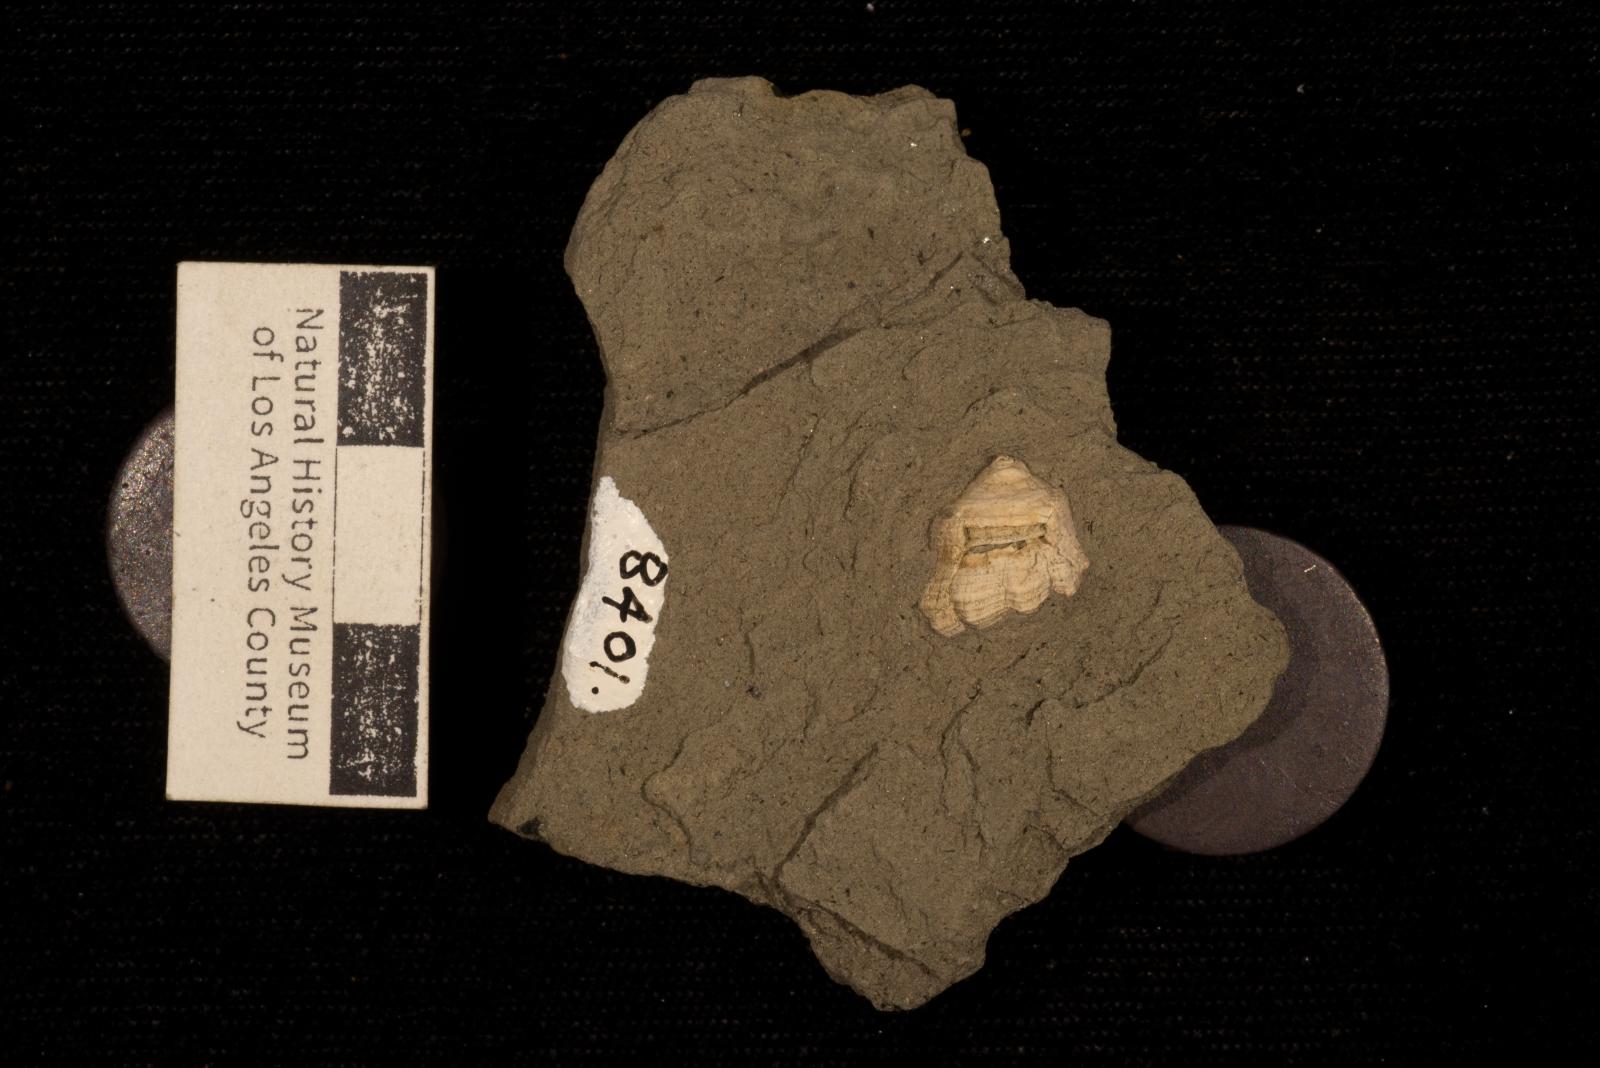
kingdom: Animalia
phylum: Mollusca
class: Gastropoda
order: Neogastropoda
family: Perissityidae
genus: Perissitys
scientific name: Perissitys colocara
